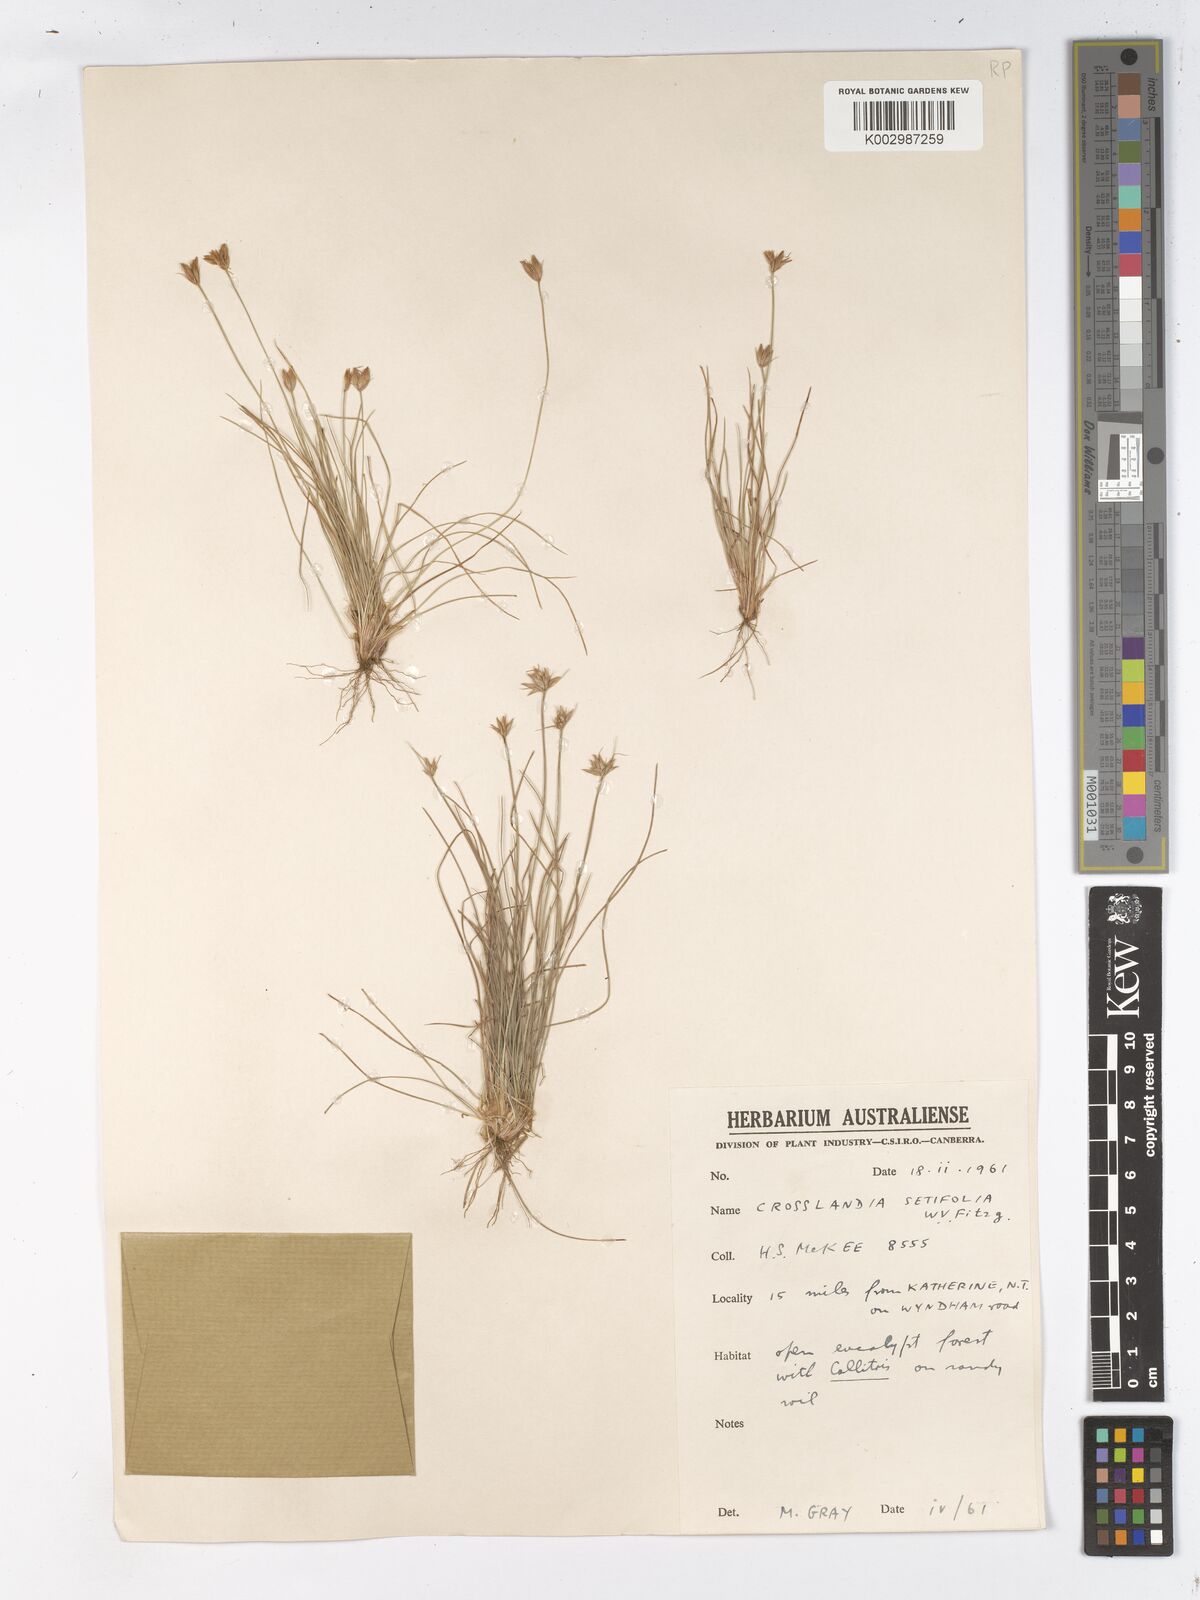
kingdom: Plantae
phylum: Tracheophyta
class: Liliopsida
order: Poales
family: Cyperaceae
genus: Fimbristylis
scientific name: Fimbristylis crosslandii
